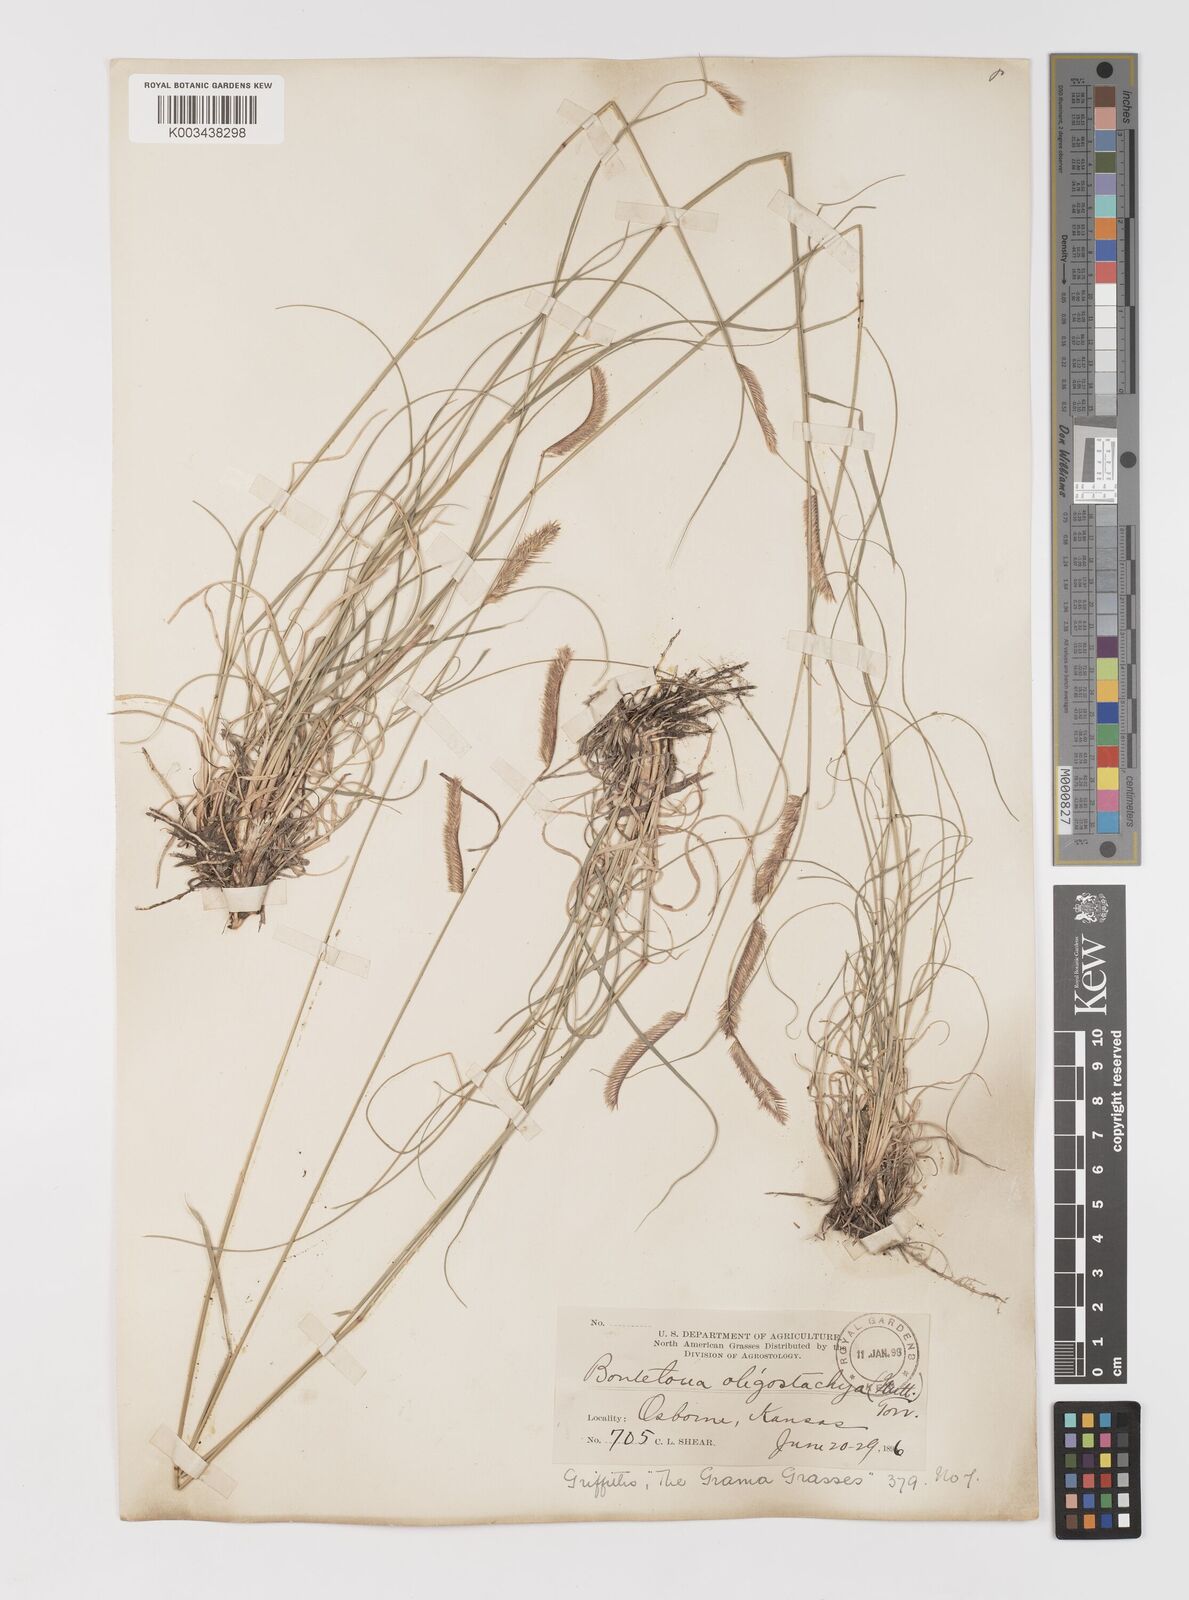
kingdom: Plantae
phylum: Tracheophyta
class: Liliopsida
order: Poales
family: Poaceae
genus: Bouteloua
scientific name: Bouteloua
